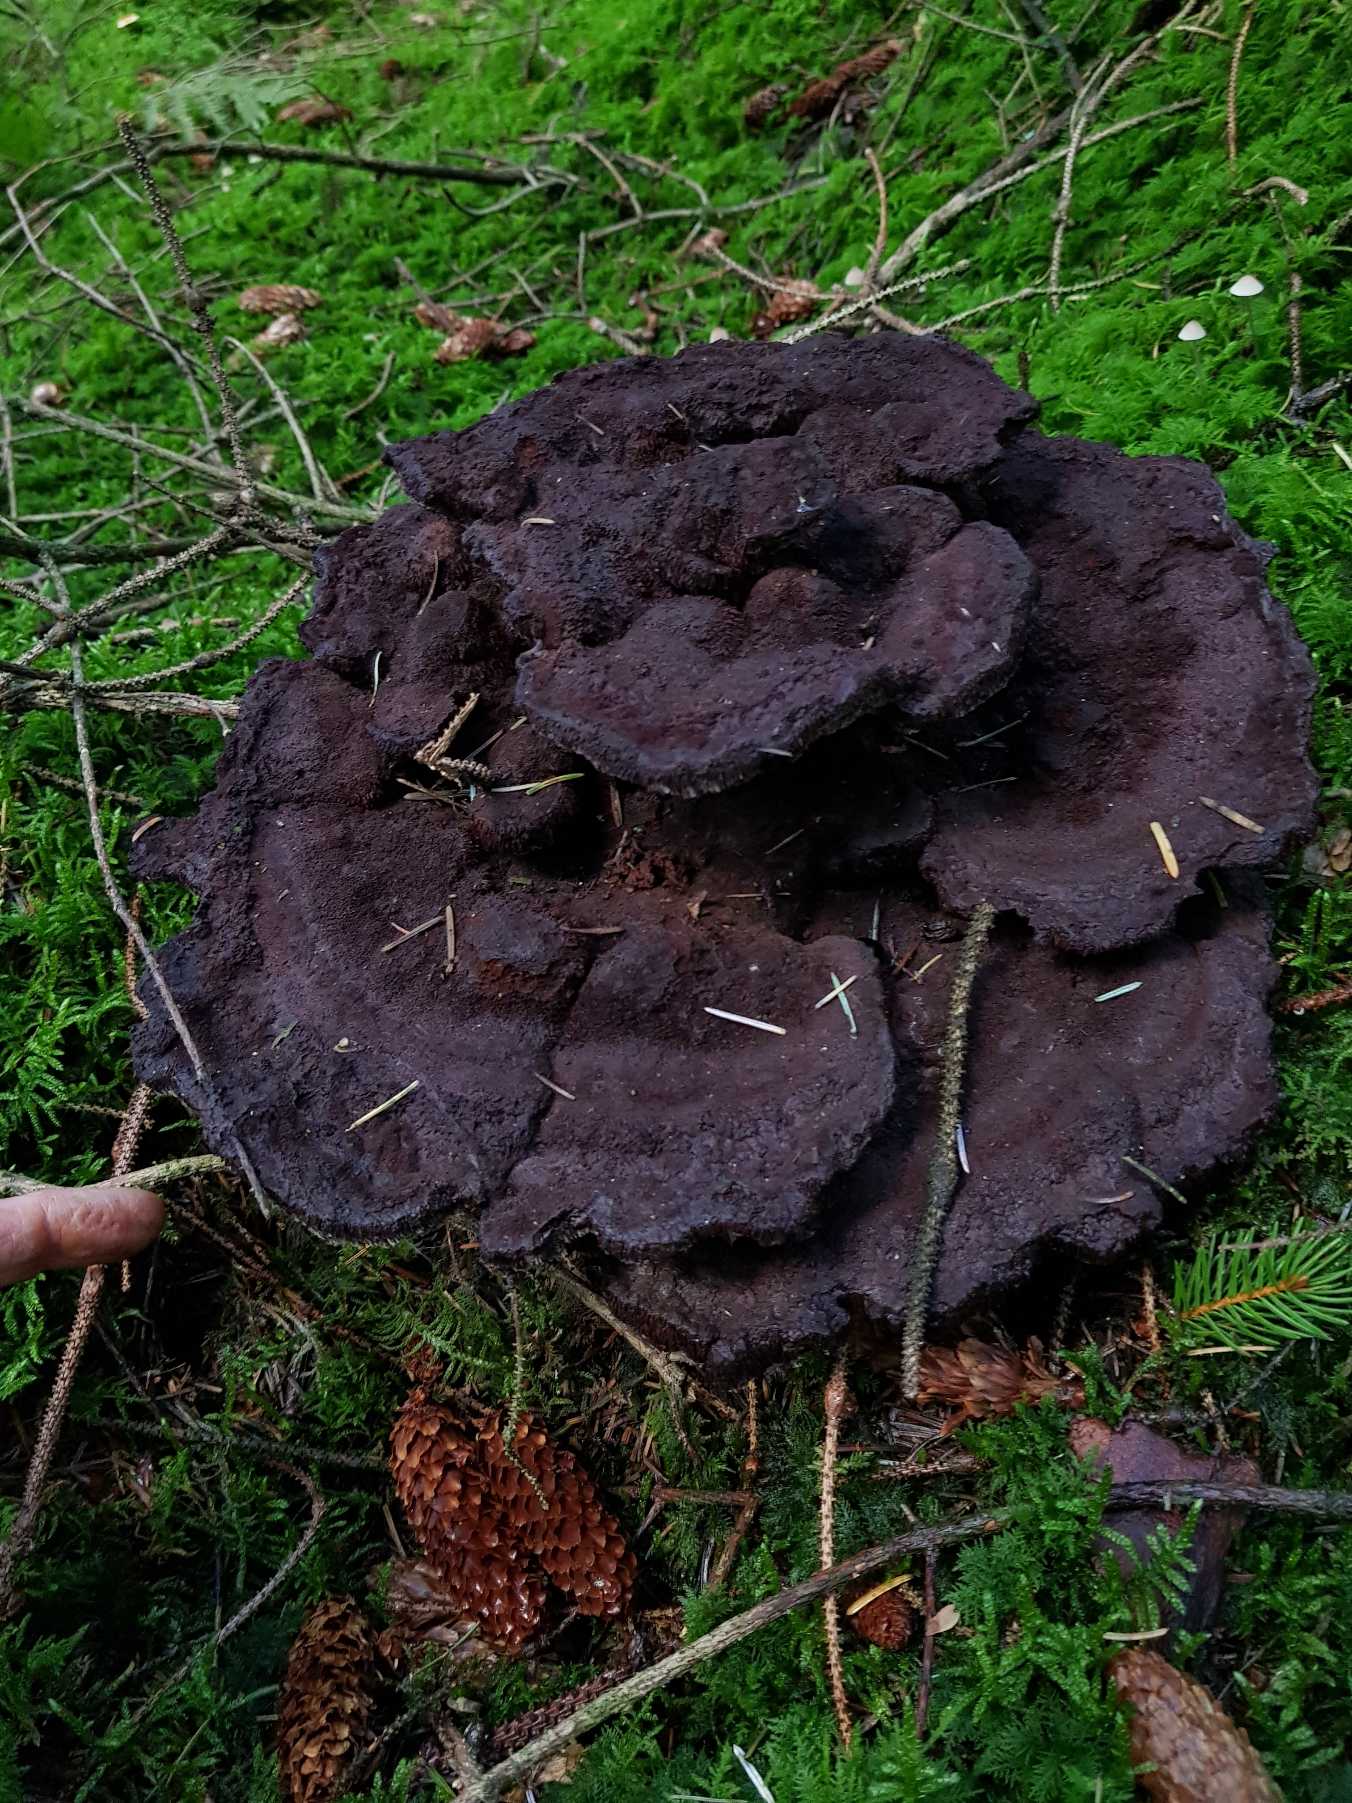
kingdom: Fungi
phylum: Basidiomycota
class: Agaricomycetes
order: Polyporales
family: Laetiporaceae
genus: Phaeolus
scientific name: Phaeolus schweinitzii
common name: Brunporesvamp
